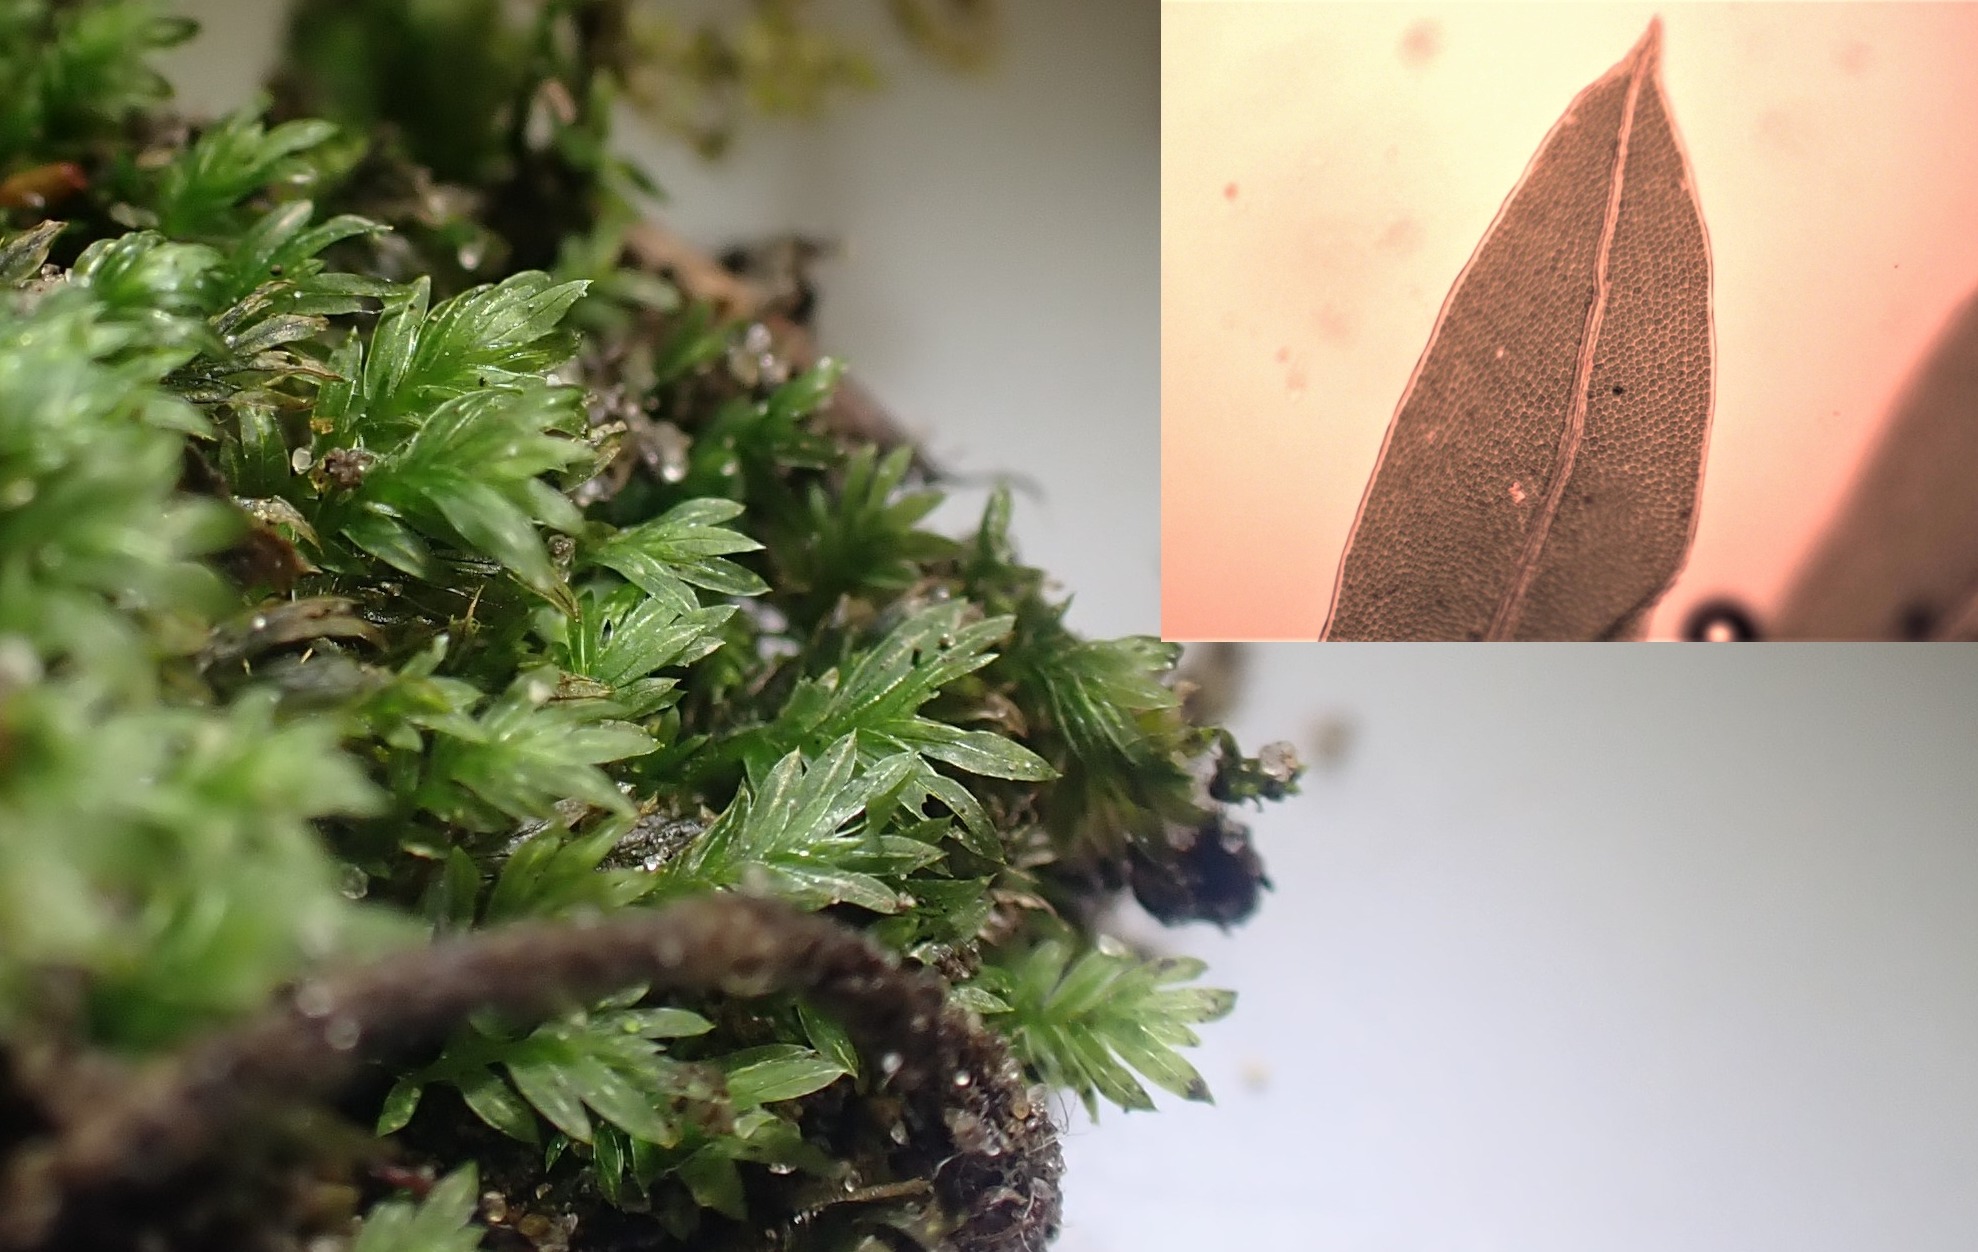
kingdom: Plantae
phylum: Bryophyta
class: Bryopsida
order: Dicranales
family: Fissidentaceae
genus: Fissidens
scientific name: Fissidens bryoides
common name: Top-rademos
